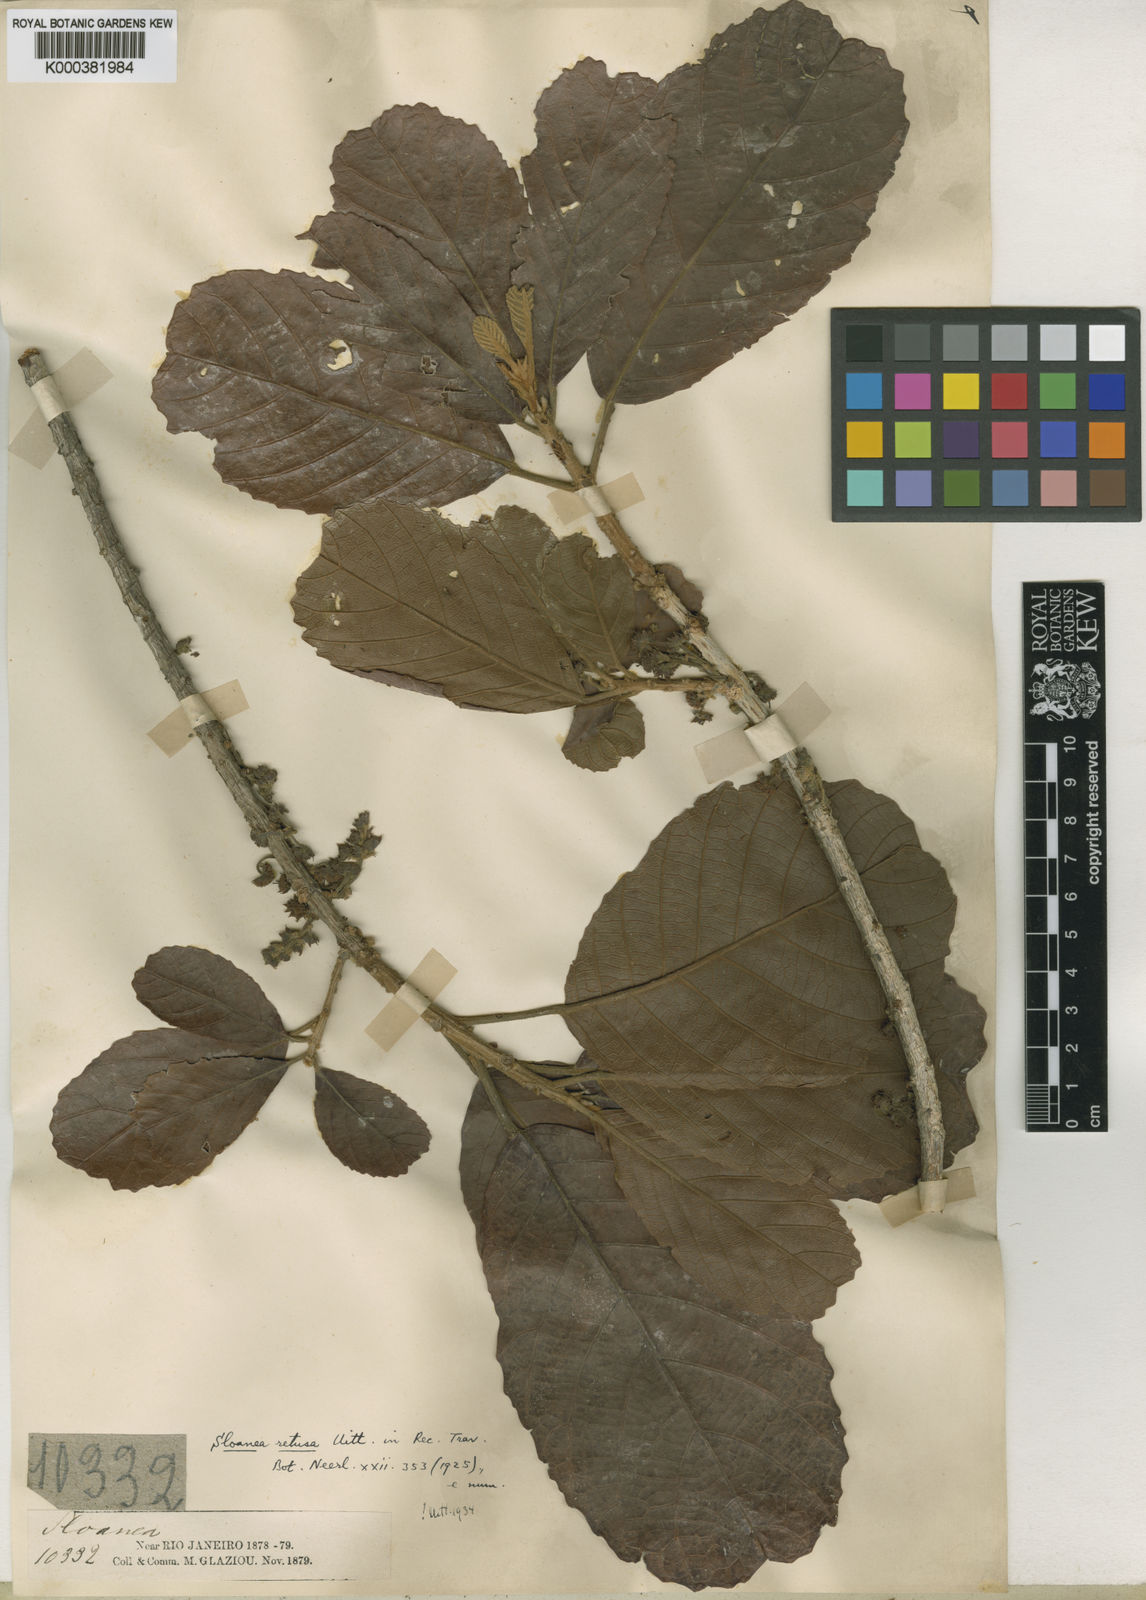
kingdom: Plantae
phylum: Tracheophyta
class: Magnoliopsida
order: Oxalidales
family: Elaeocarpaceae
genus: Sloanea
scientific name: Sloanea retusa
